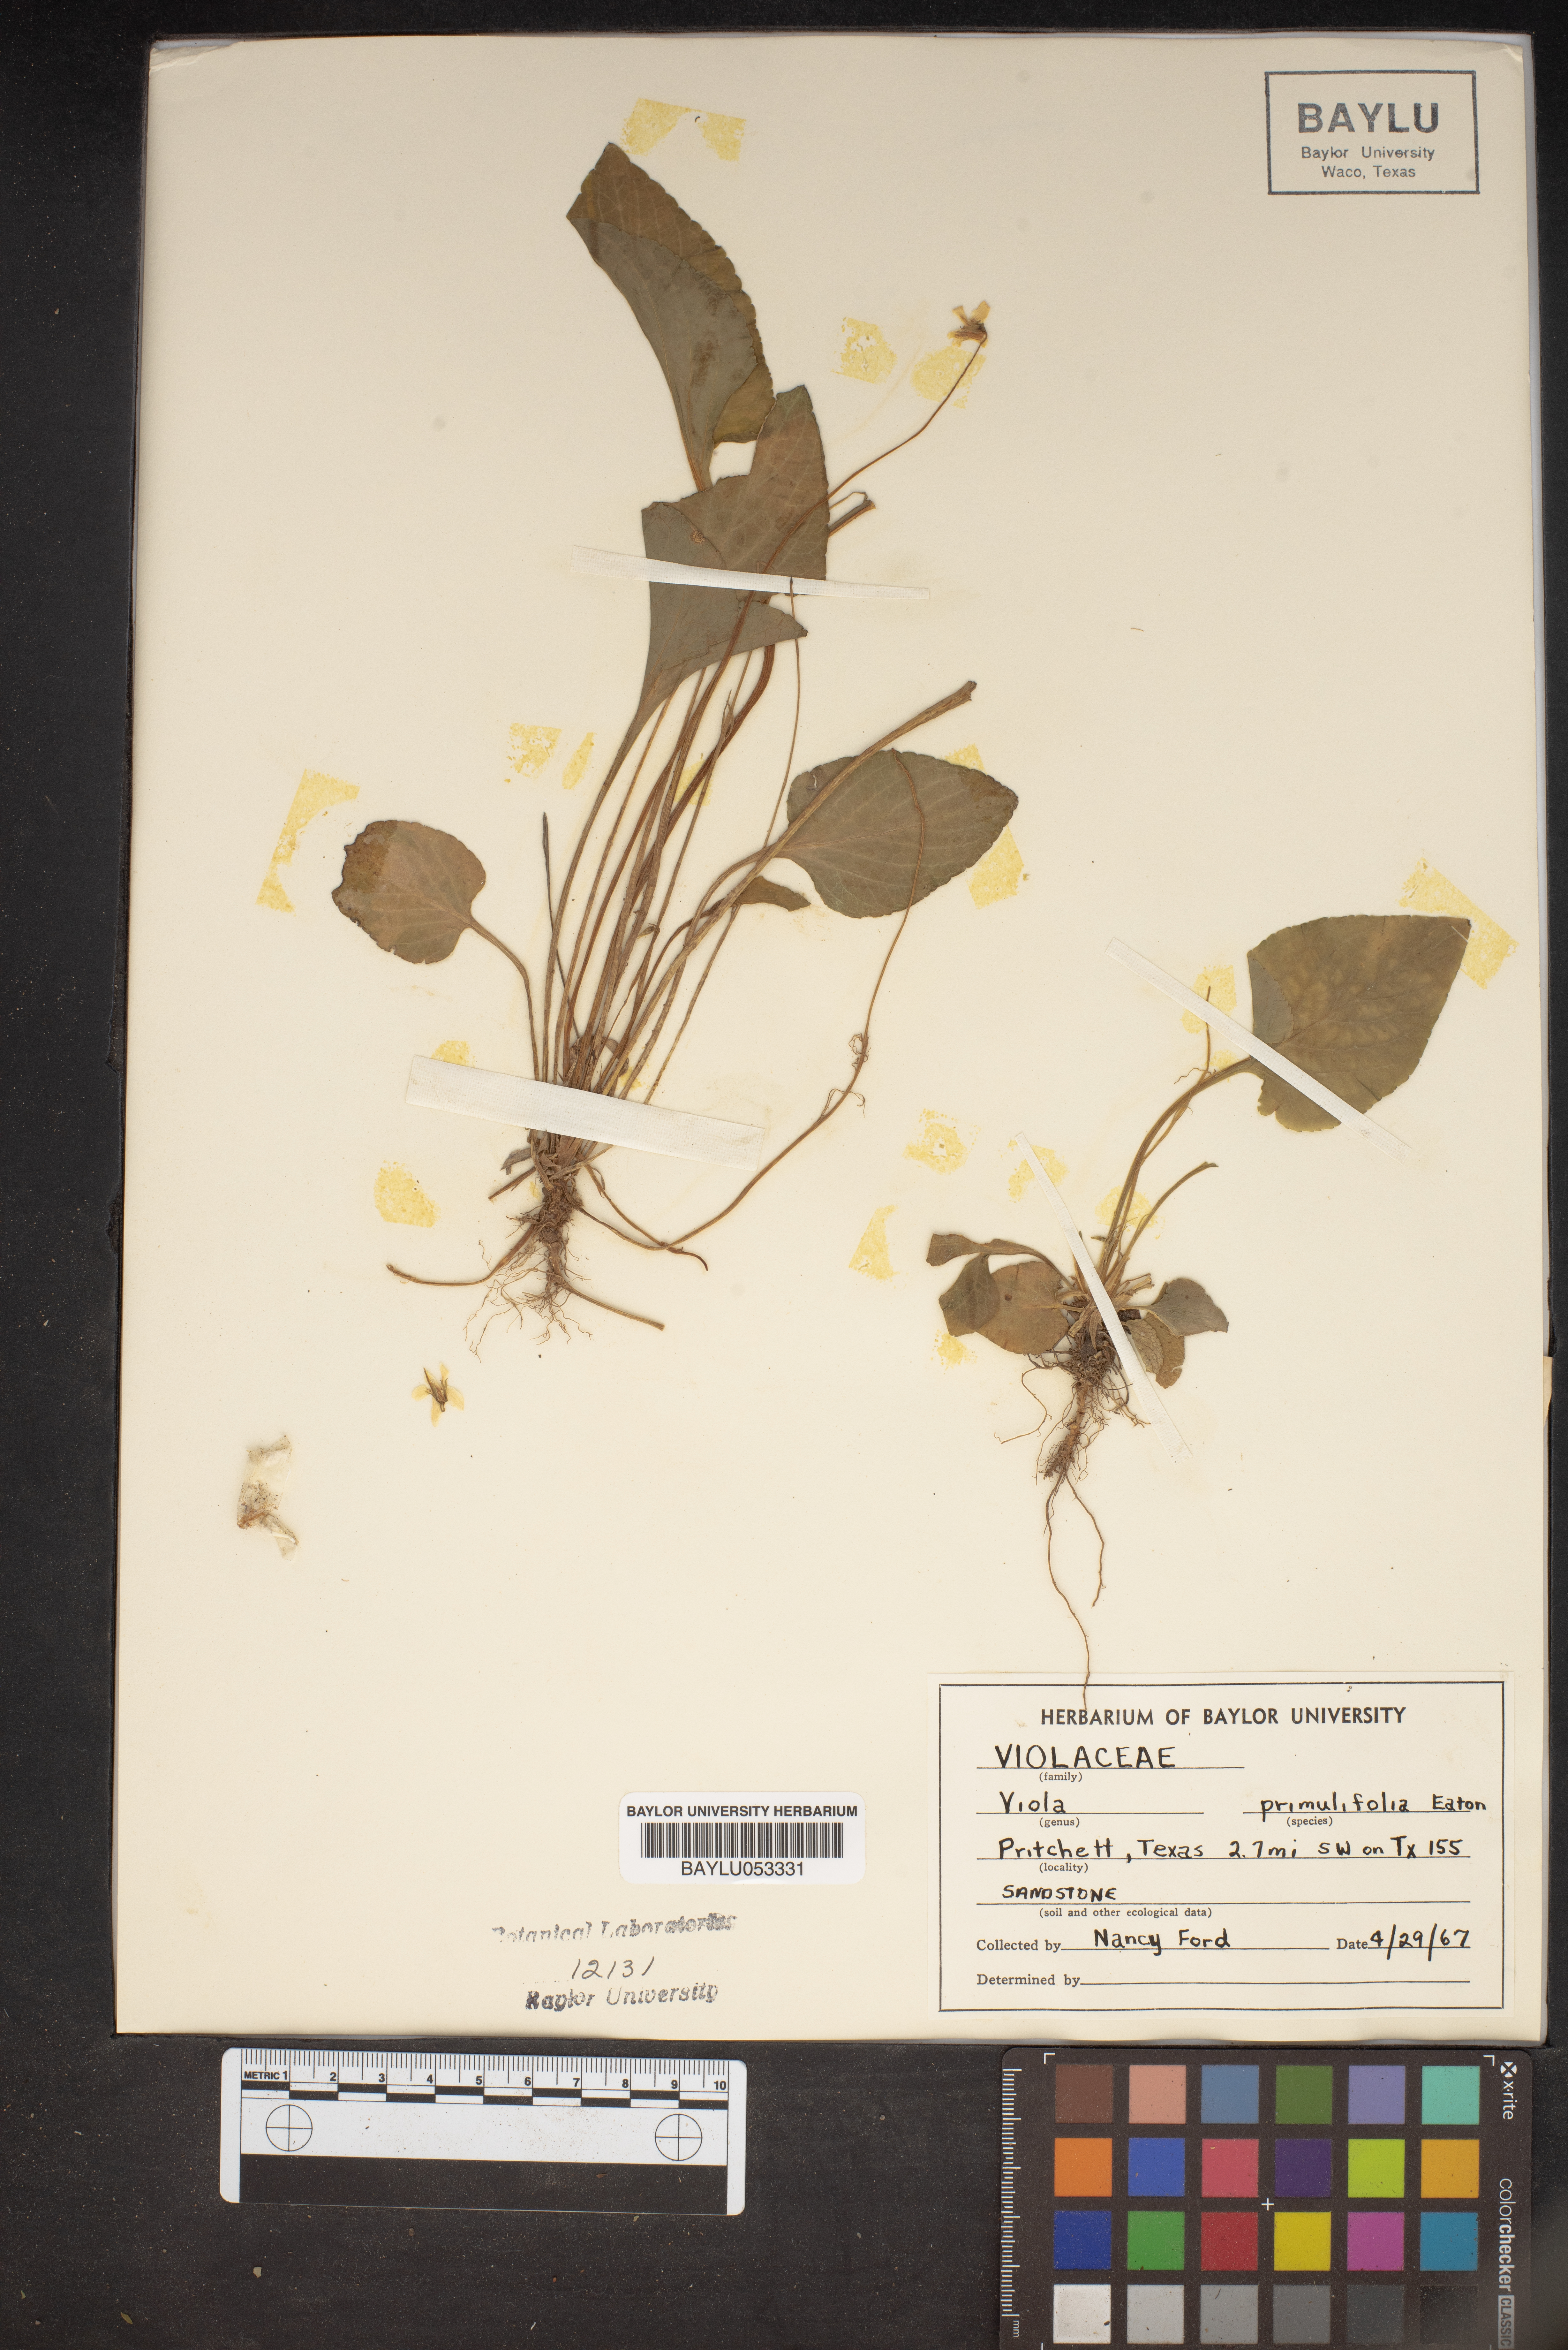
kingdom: Plantae
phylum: Tracheophyta
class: Magnoliopsida
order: Malpighiales
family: Violaceae
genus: Viola
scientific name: Viola primulifolia
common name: Primrose-leaf violet
